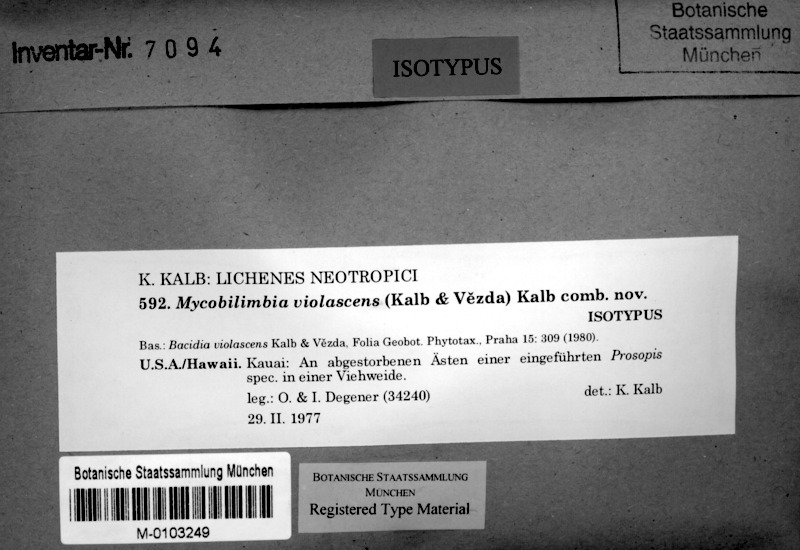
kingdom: Fungi
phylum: Ascomycota
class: Lecanoromycetes
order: Lecanorales
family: Ramalinaceae
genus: Mycobilimbia
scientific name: Mycobilimbia violascens
